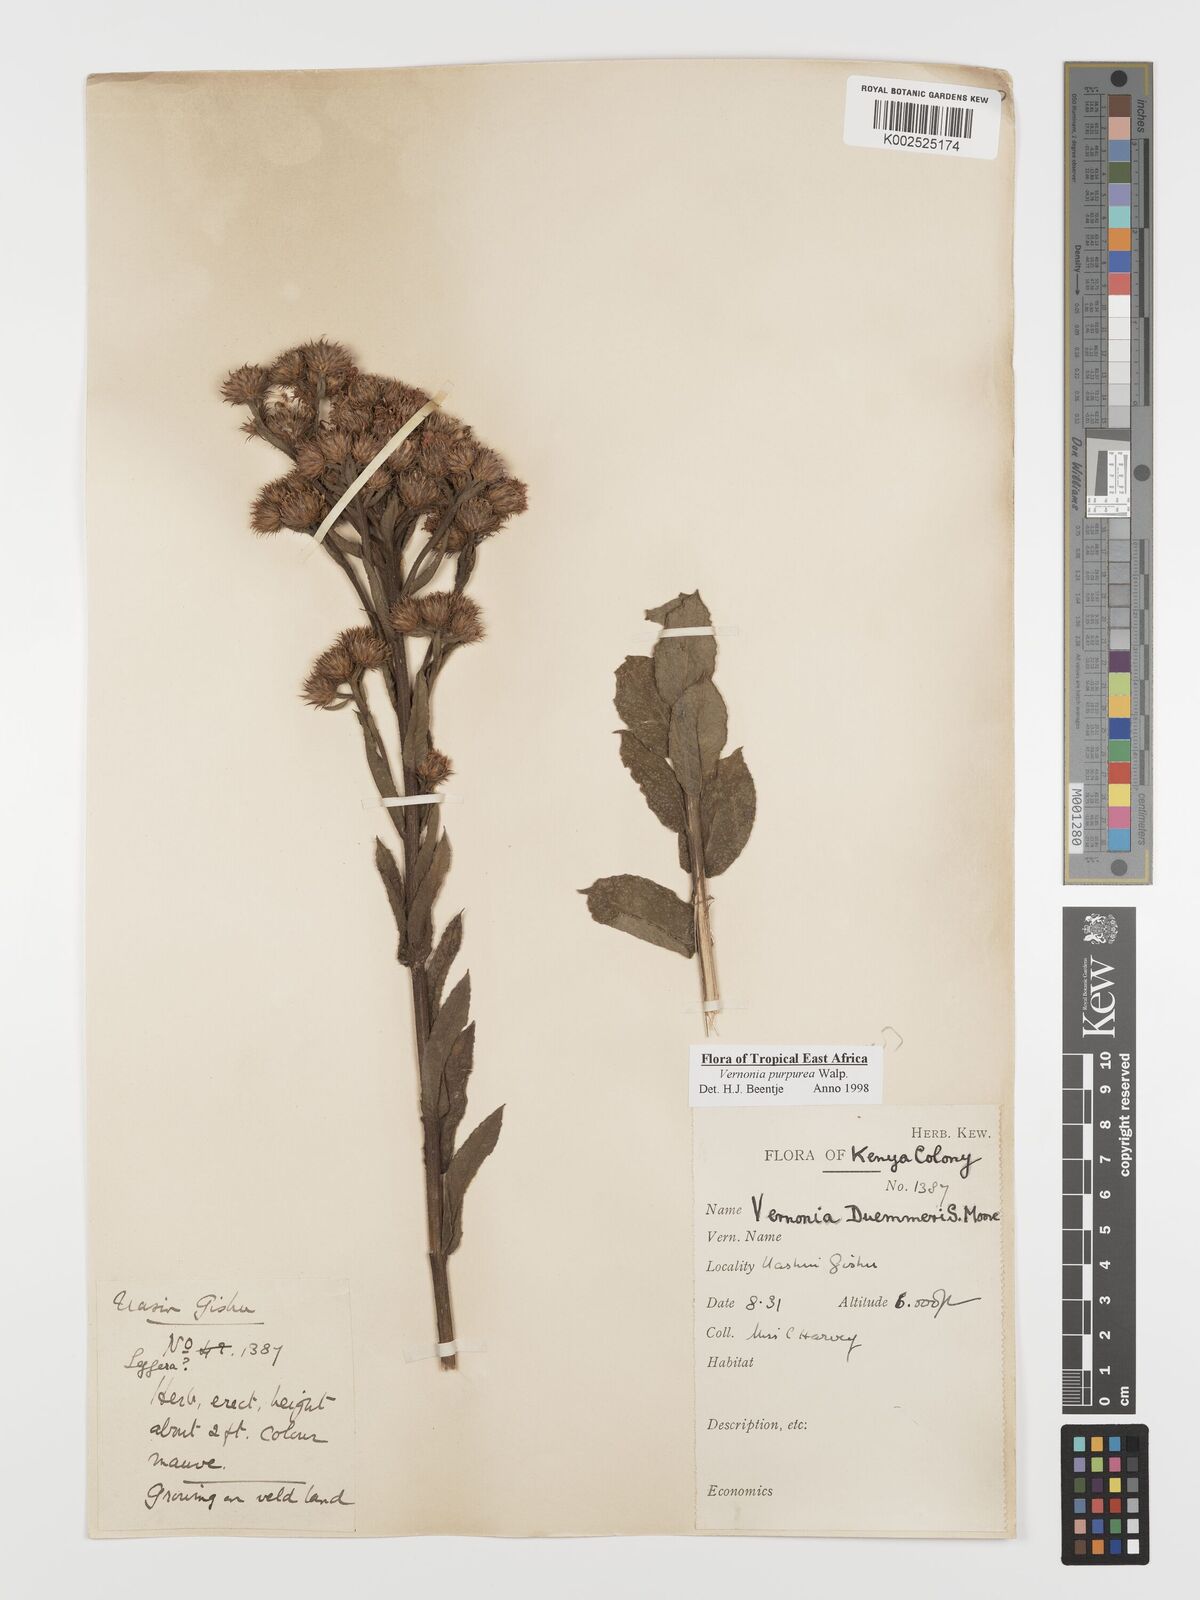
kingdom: Plantae
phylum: Tracheophyta
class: Magnoliopsida
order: Asterales
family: Asteraceae
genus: Nothovernonia
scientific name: Nothovernonia purpurea
